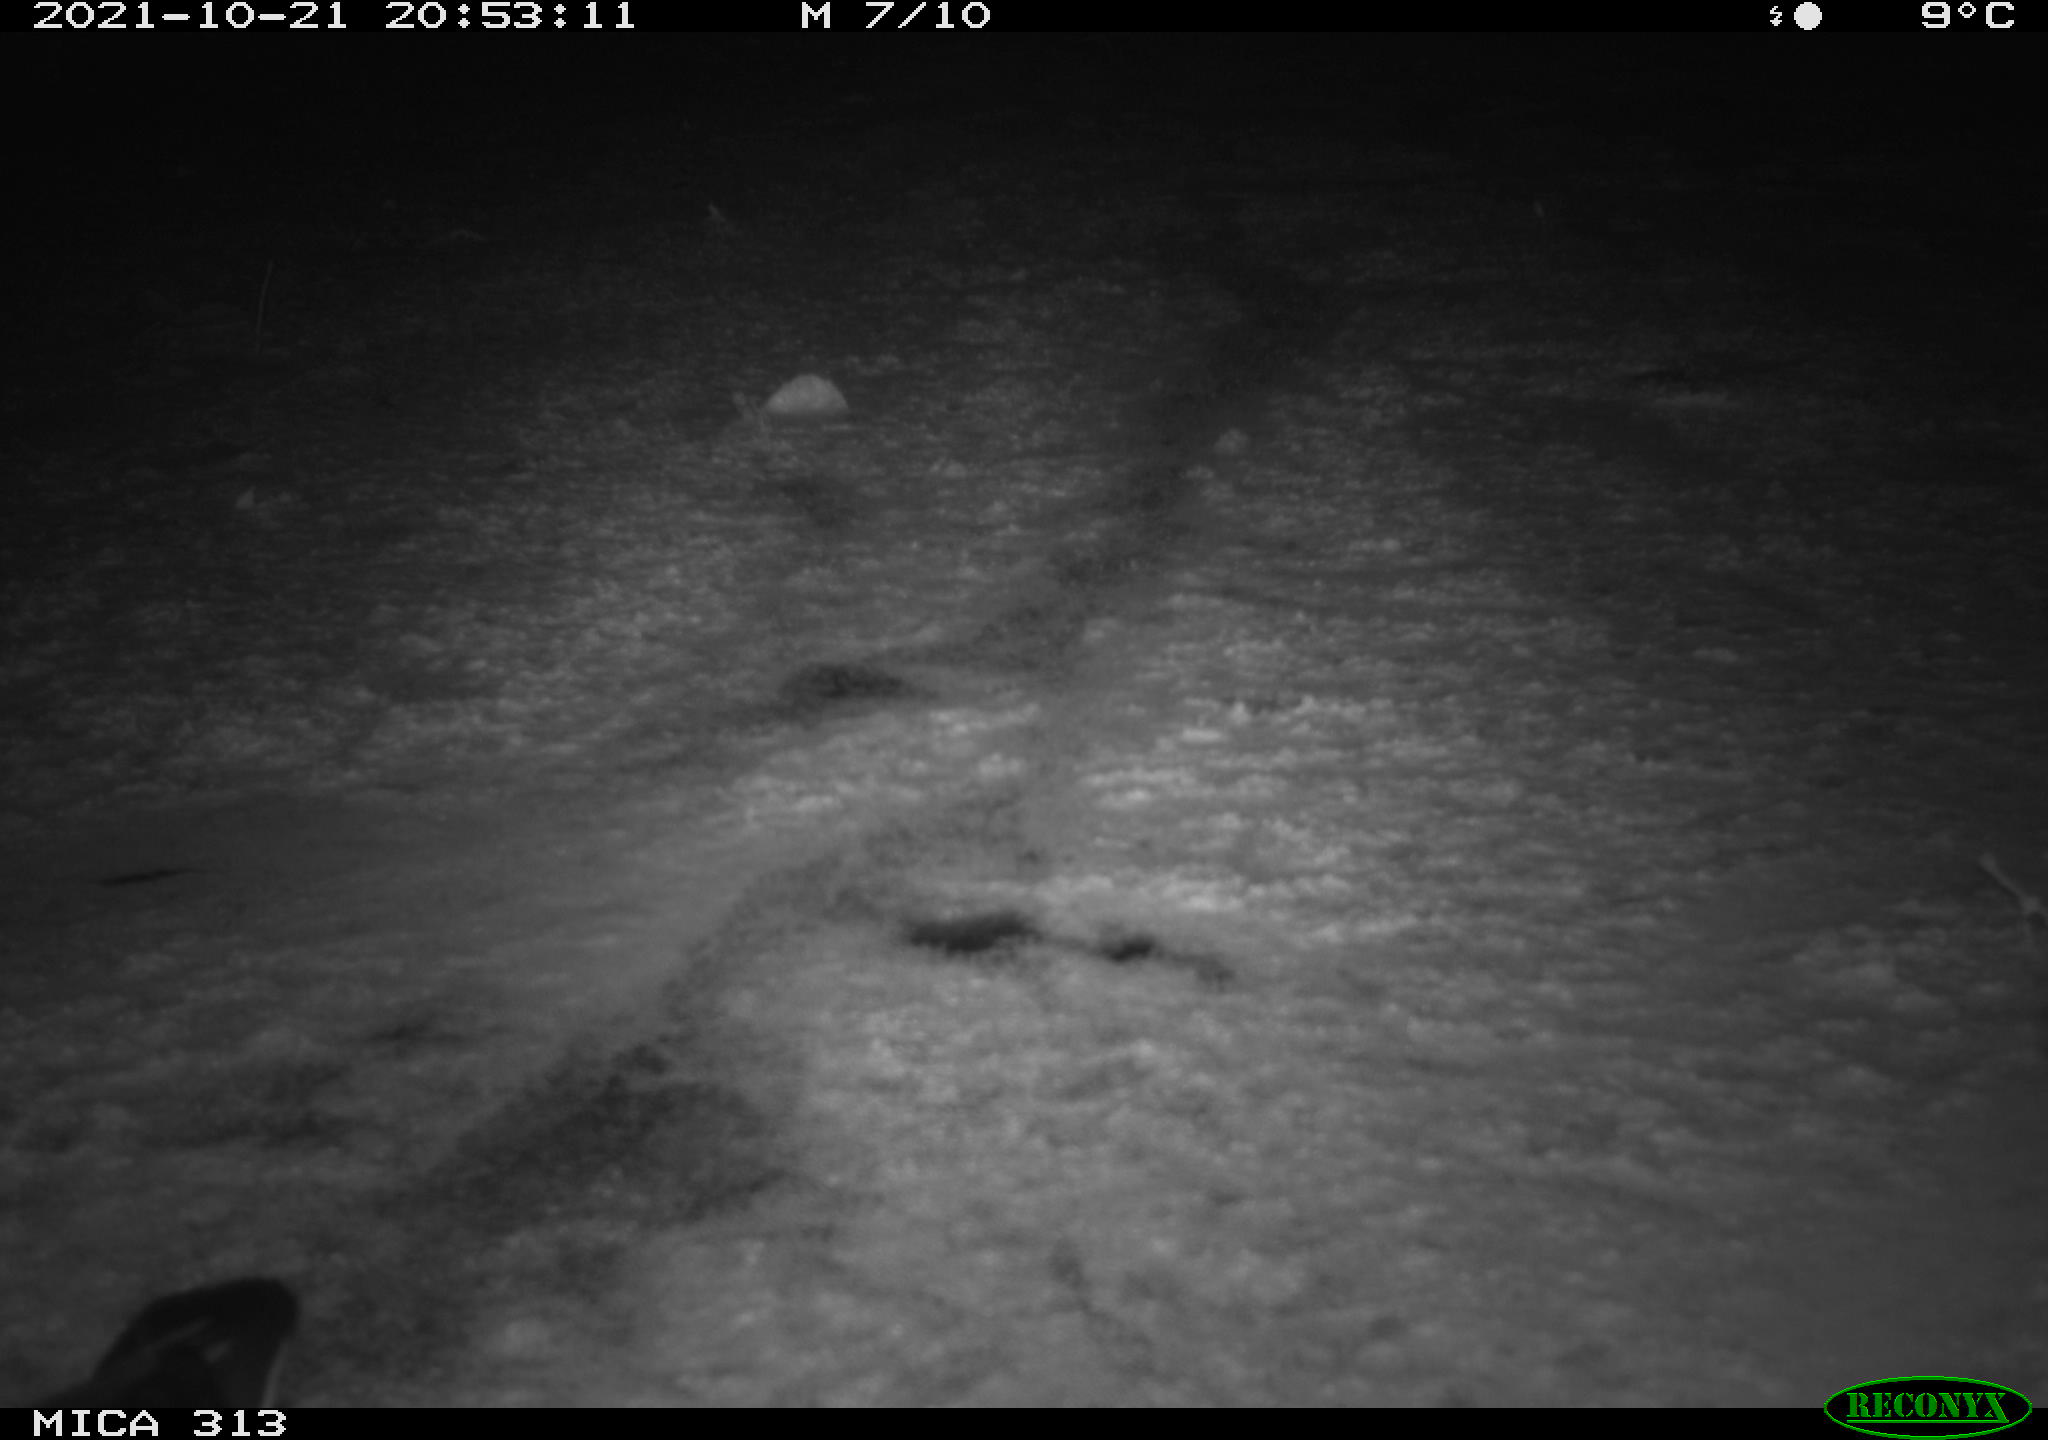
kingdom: Animalia
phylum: Chordata
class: Aves
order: Gruiformes
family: Rallidae
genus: Gallinula
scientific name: Gallinula chloropus
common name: Common moorhen
